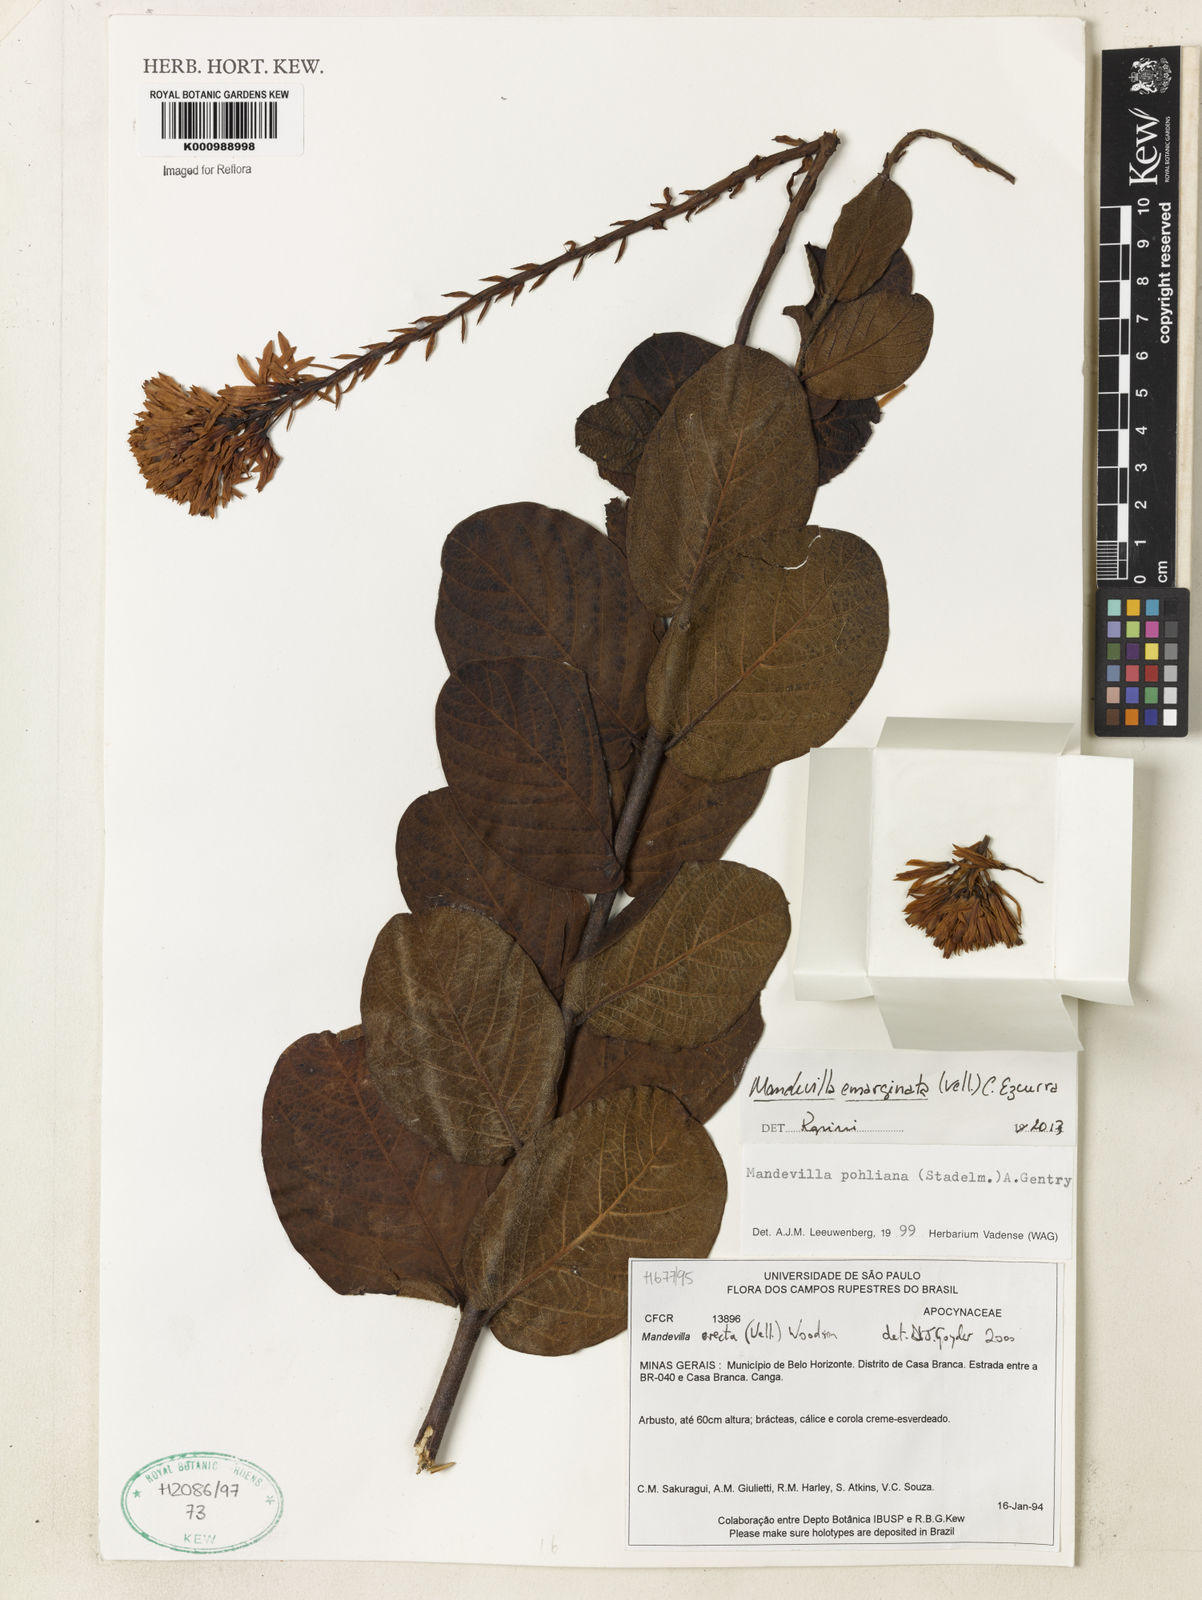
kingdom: Plantae
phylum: Tracheophyta
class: Magnoliopsida
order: Gentianales
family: Apocynaceae
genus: Mandevilla
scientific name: Mandevilla emarginata
